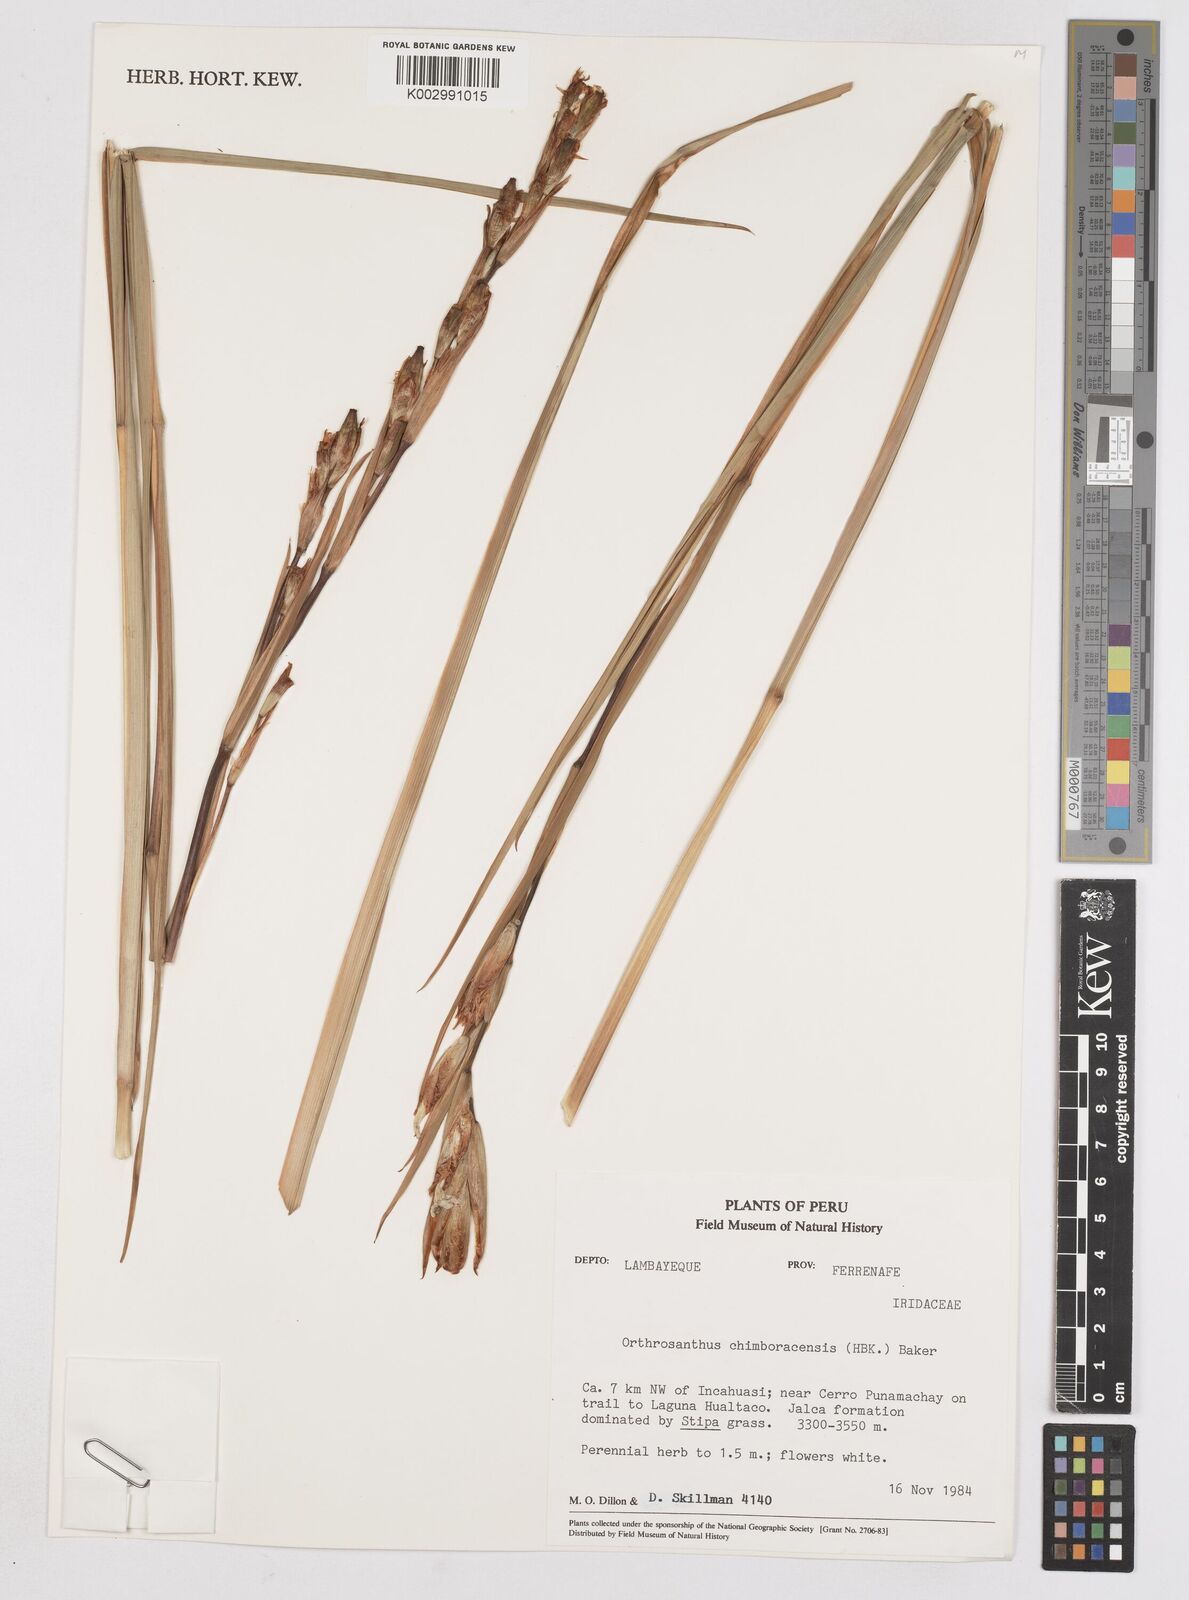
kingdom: Plantae
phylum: Tracheophyta
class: Liliopsida
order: Asparagales
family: Iridaceae
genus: Orthrosanthus
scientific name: Orthrosanthus chimboracensis
